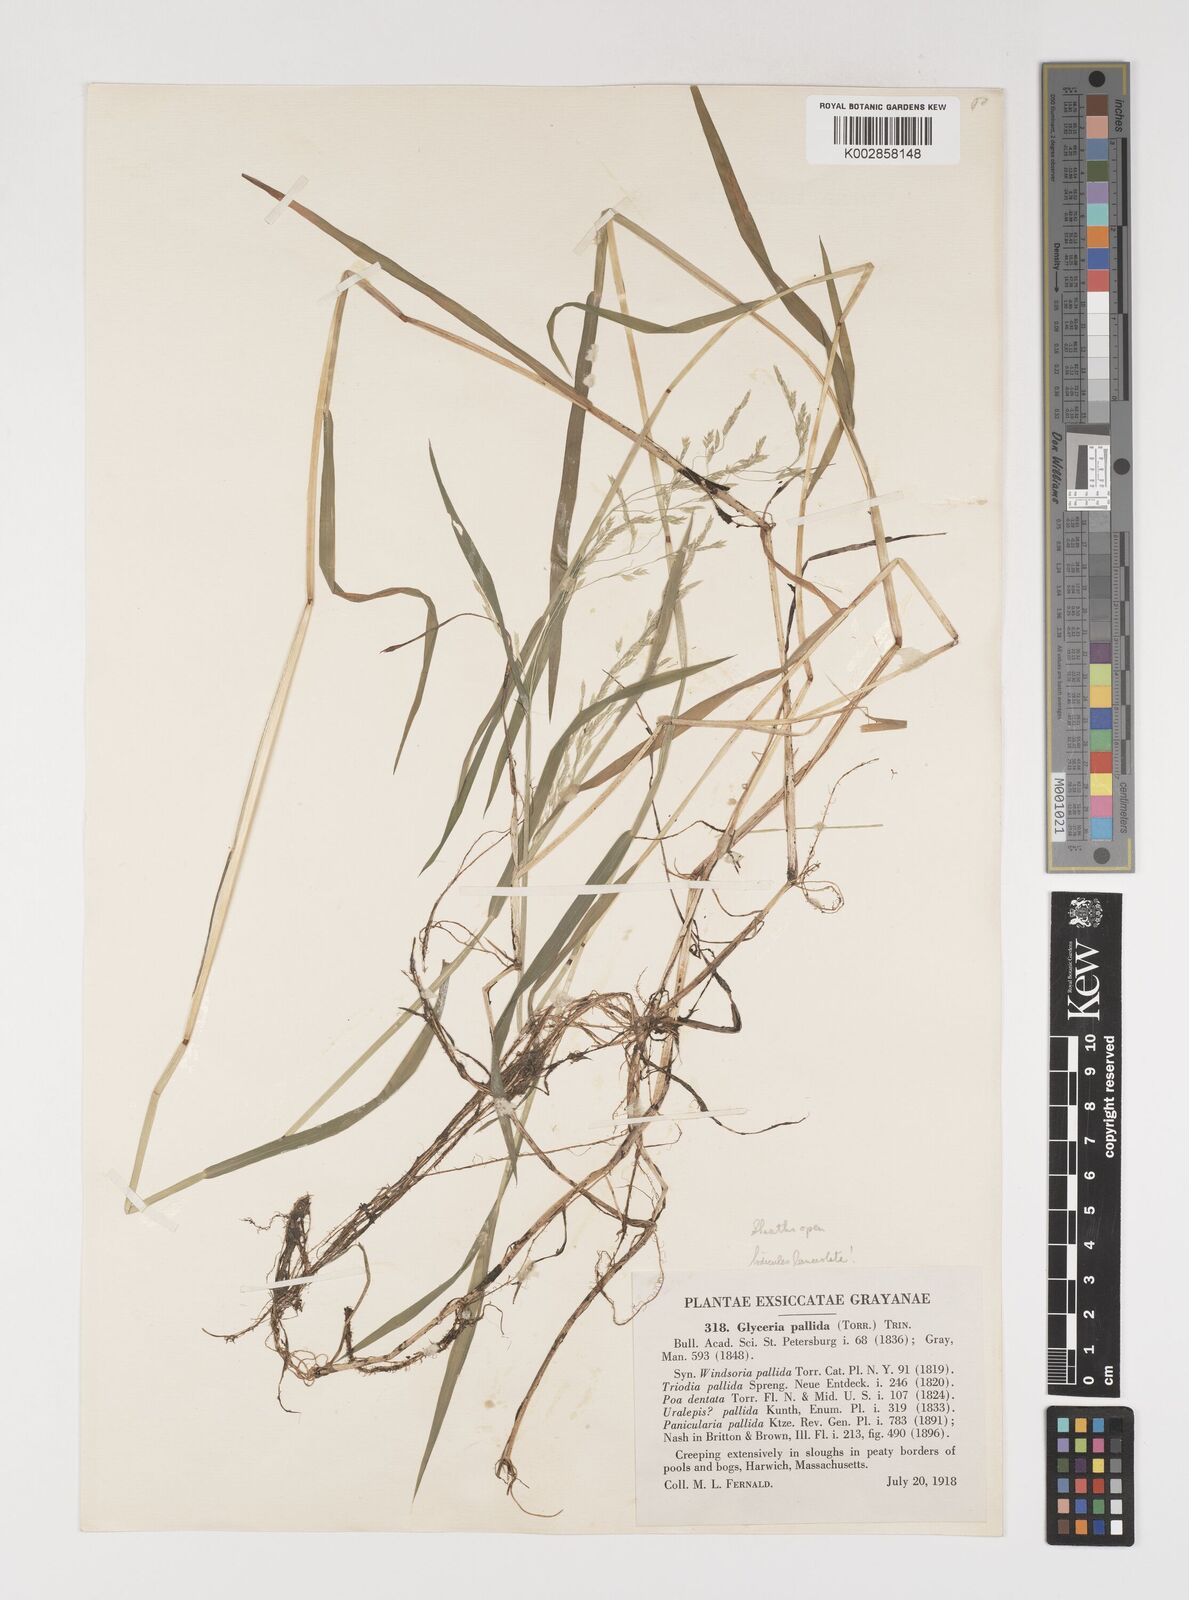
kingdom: Plantae
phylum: Tracheophyta
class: Liliopsida
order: Poales
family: Poaceae
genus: Torreyochloa
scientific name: Torreyochloa pallida
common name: Pale false mannagrass
